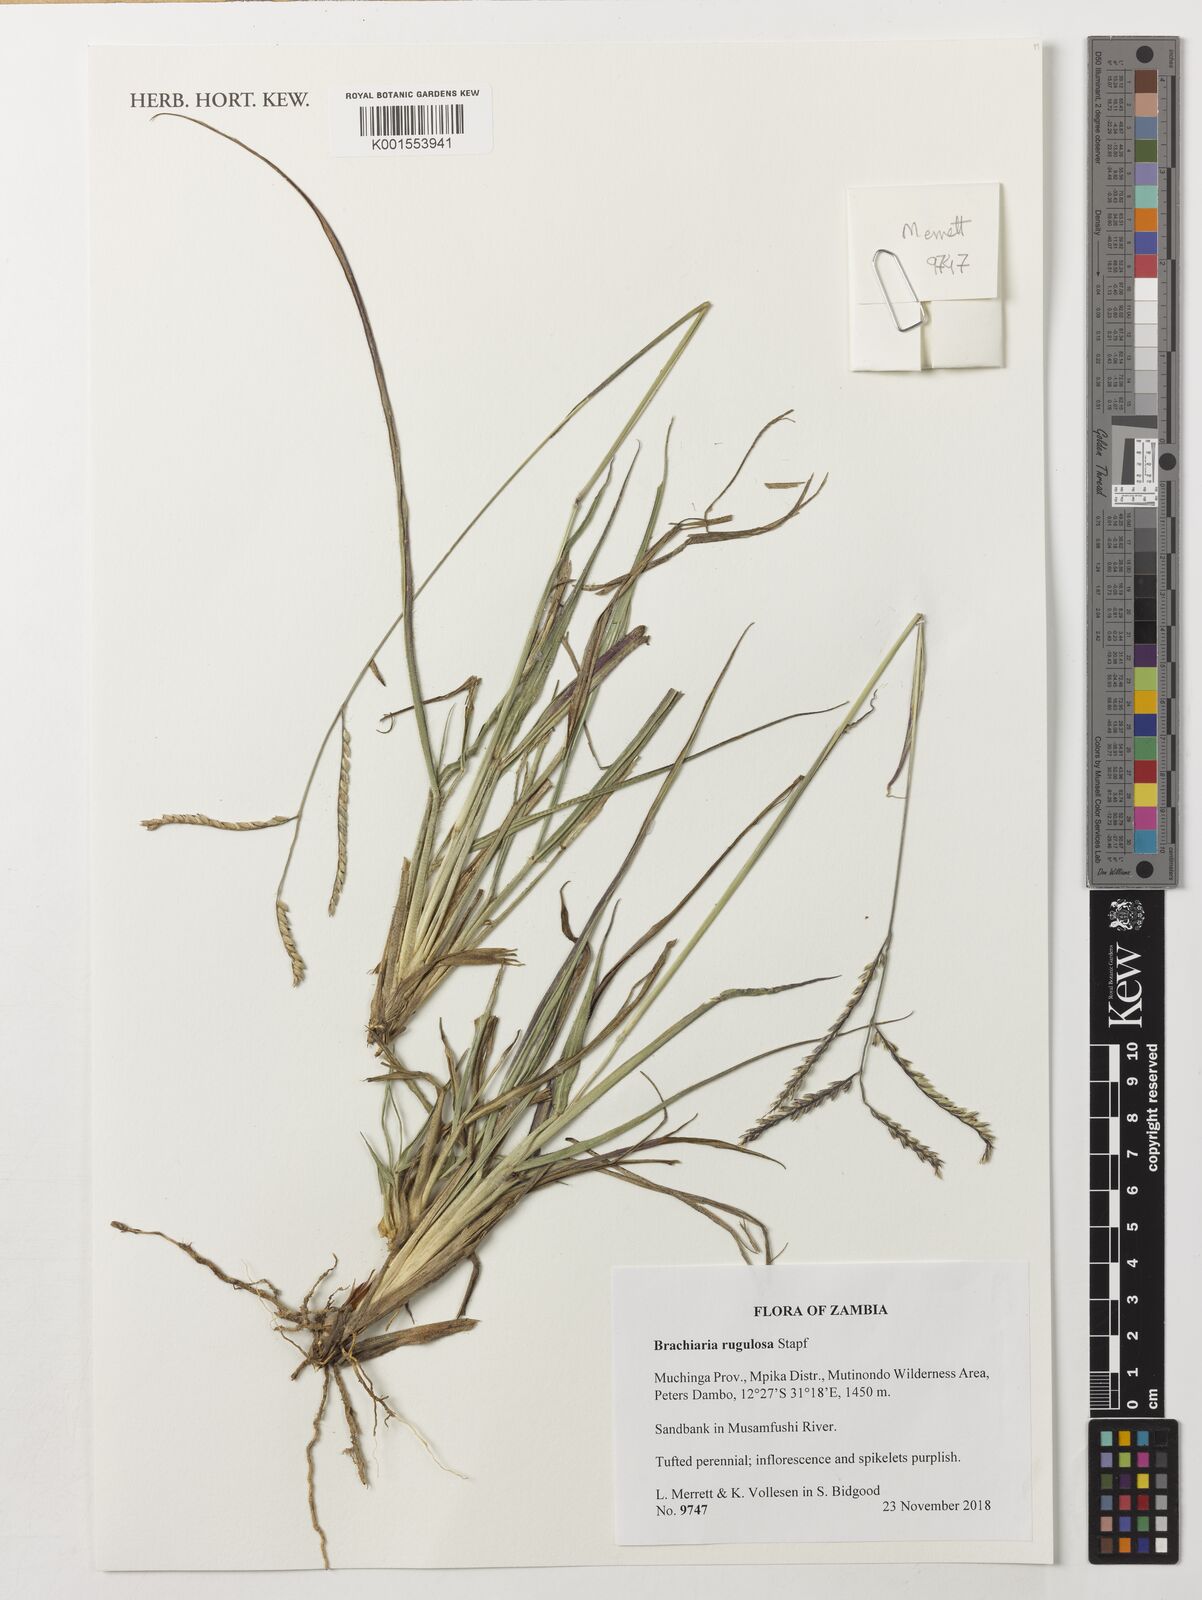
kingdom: Plantae
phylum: Tracheophyta
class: Liliopsida
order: Poales
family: Poaceae
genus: Urochloa
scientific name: Urochloa rugulosa
